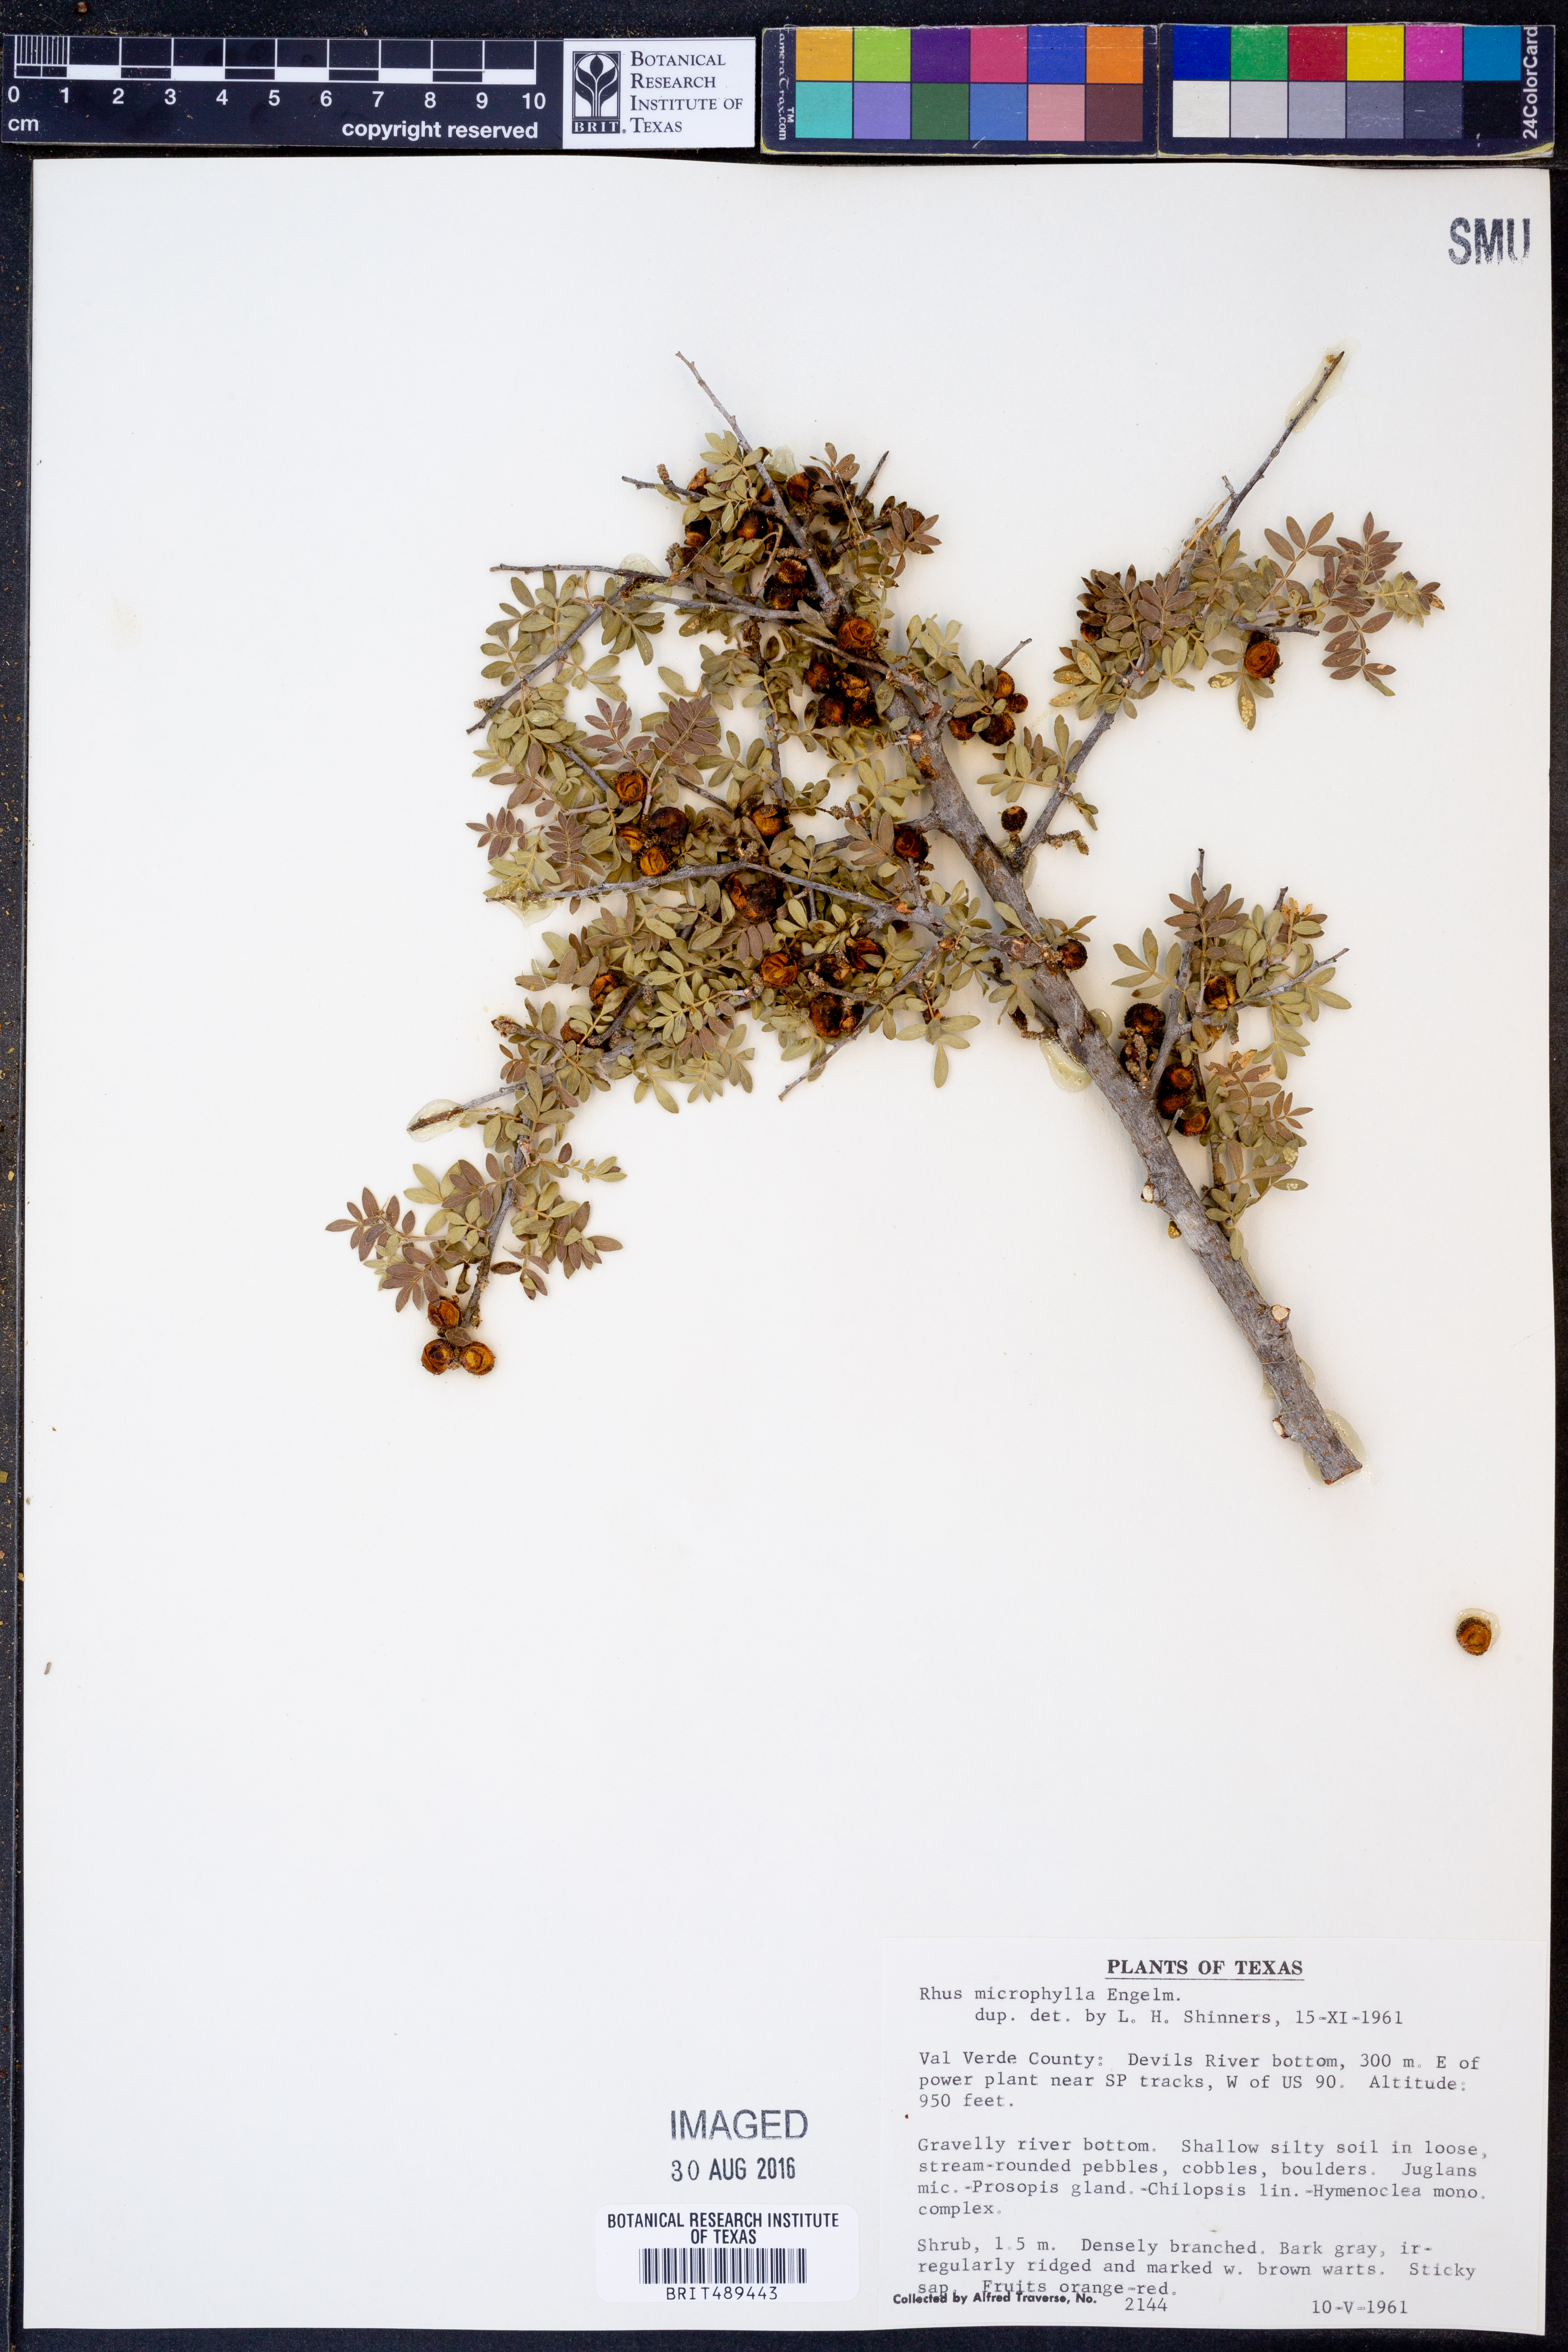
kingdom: Plantae
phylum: Tracheophyta
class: Magnoliopsida
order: Sapindales
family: Anacardiaceae
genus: Rhus
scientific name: Rhus microphylla
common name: Desert sumac
